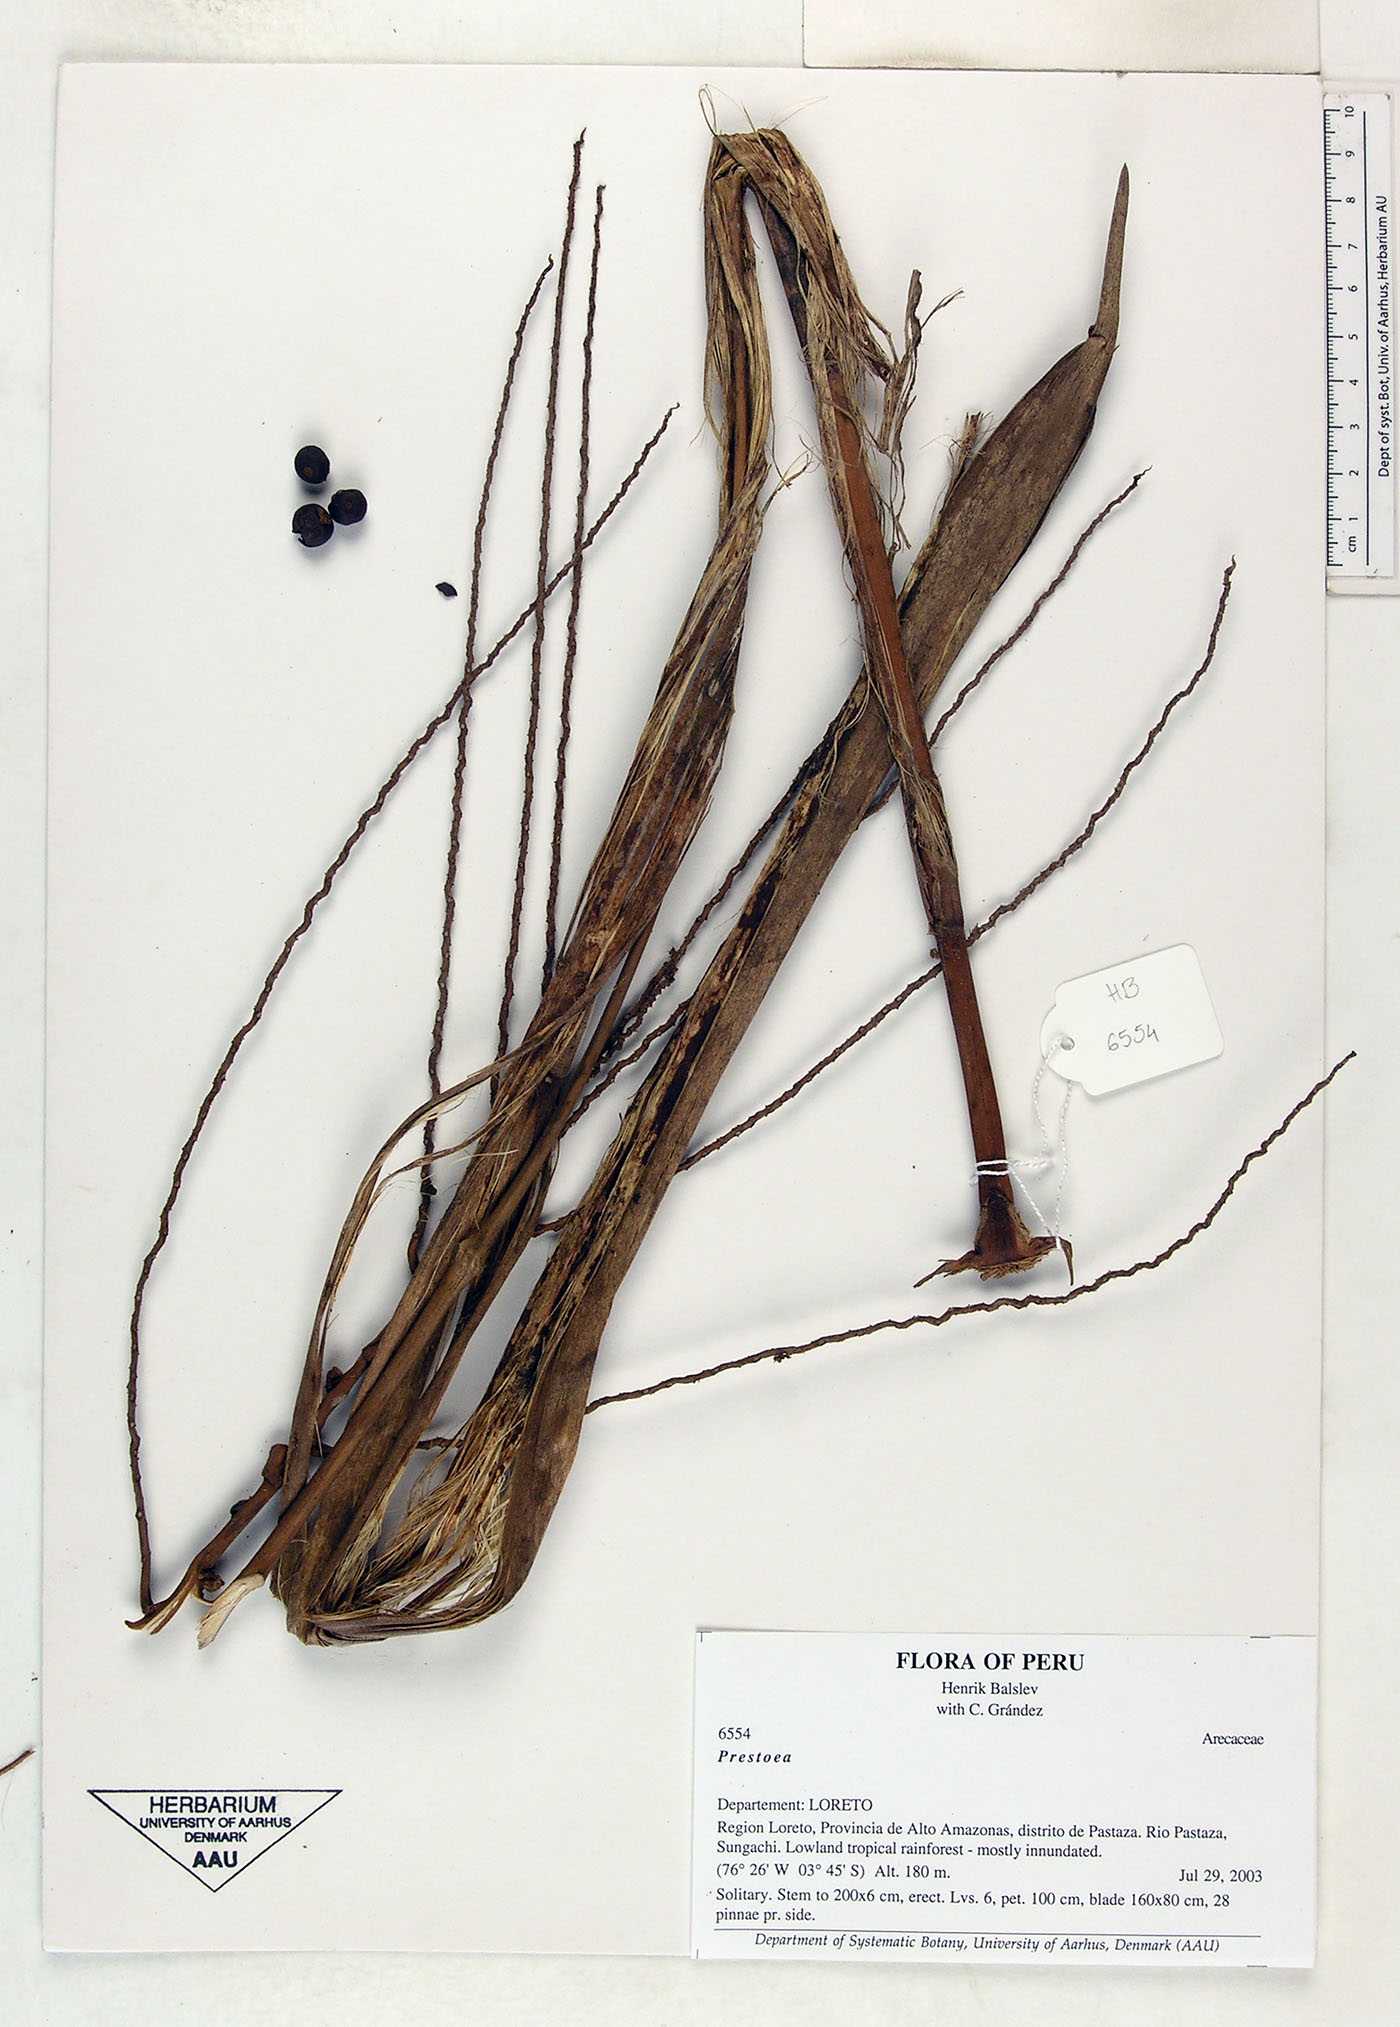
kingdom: Plantae
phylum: Tracheophyta
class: Liliopsida
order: Arecales
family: Arecaceae
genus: Prestoea
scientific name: Prestoea
